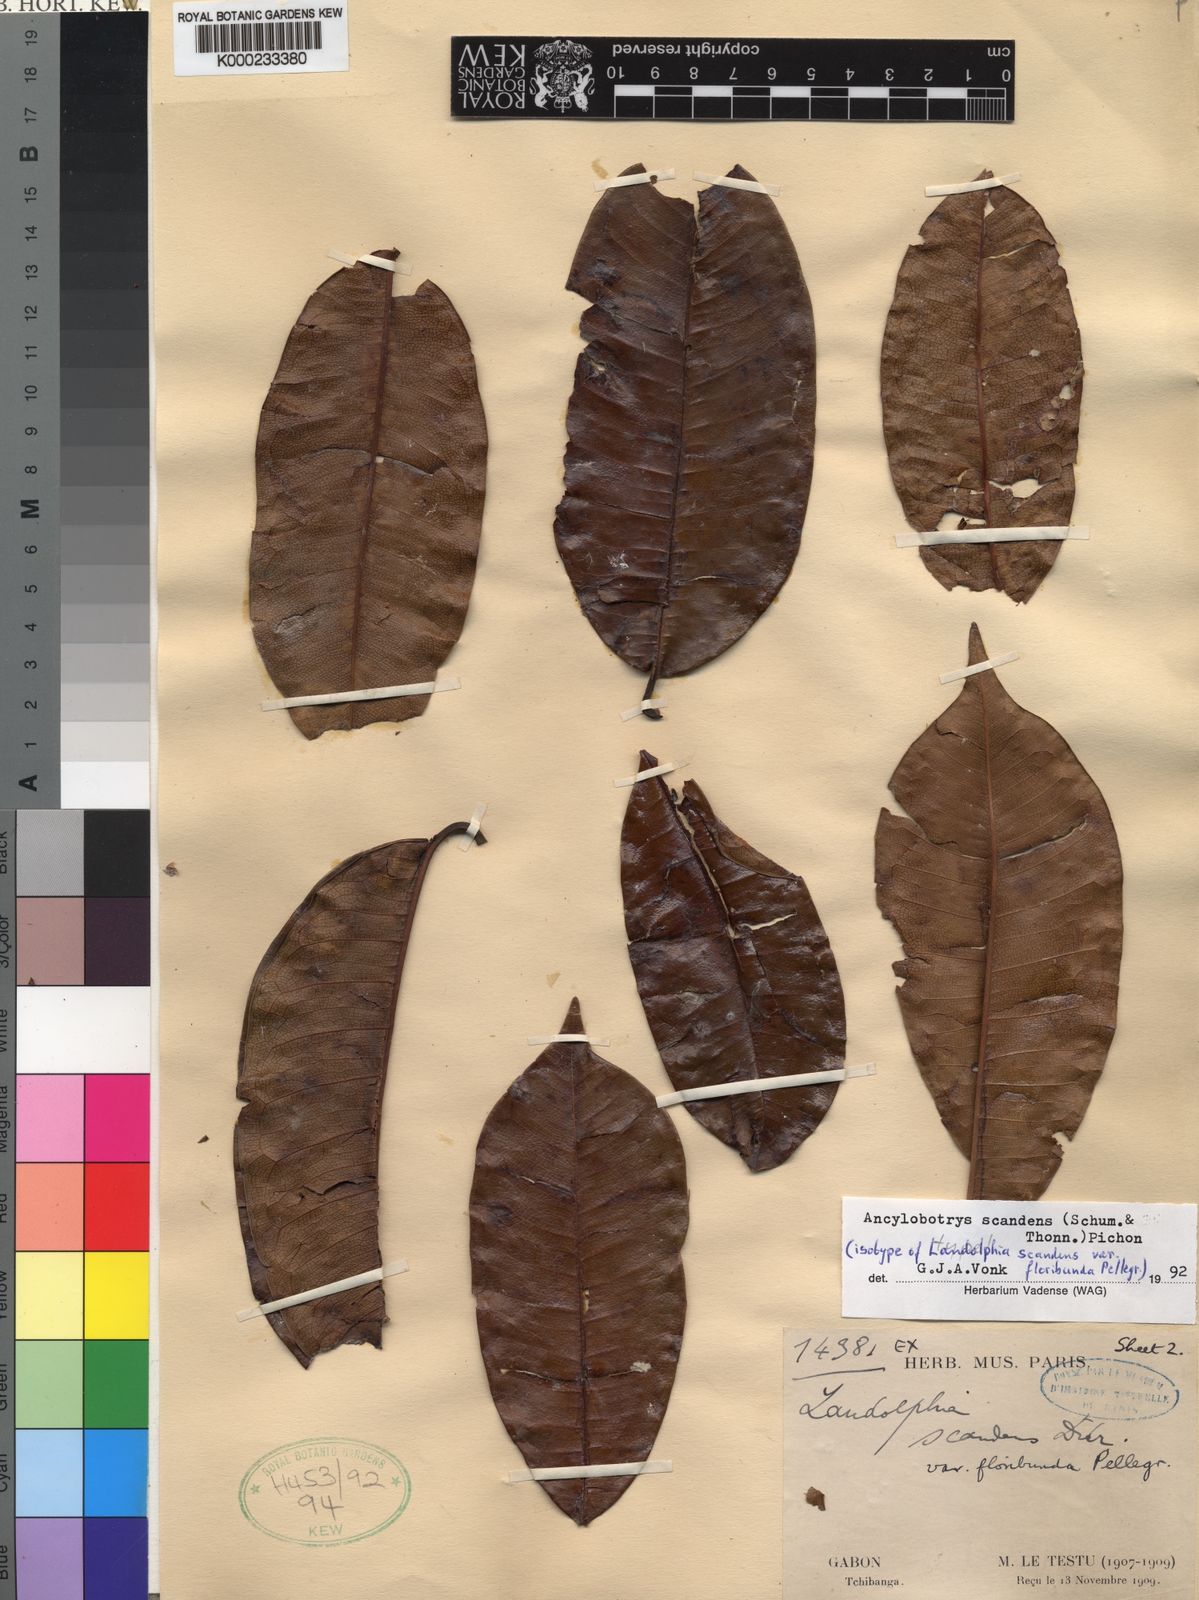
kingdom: Plantae
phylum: Tracheophyta
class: Magnoliopsida
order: Gentianales
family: Apocynaceae
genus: Ancylobothrys
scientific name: Ancylobothrys scandens
